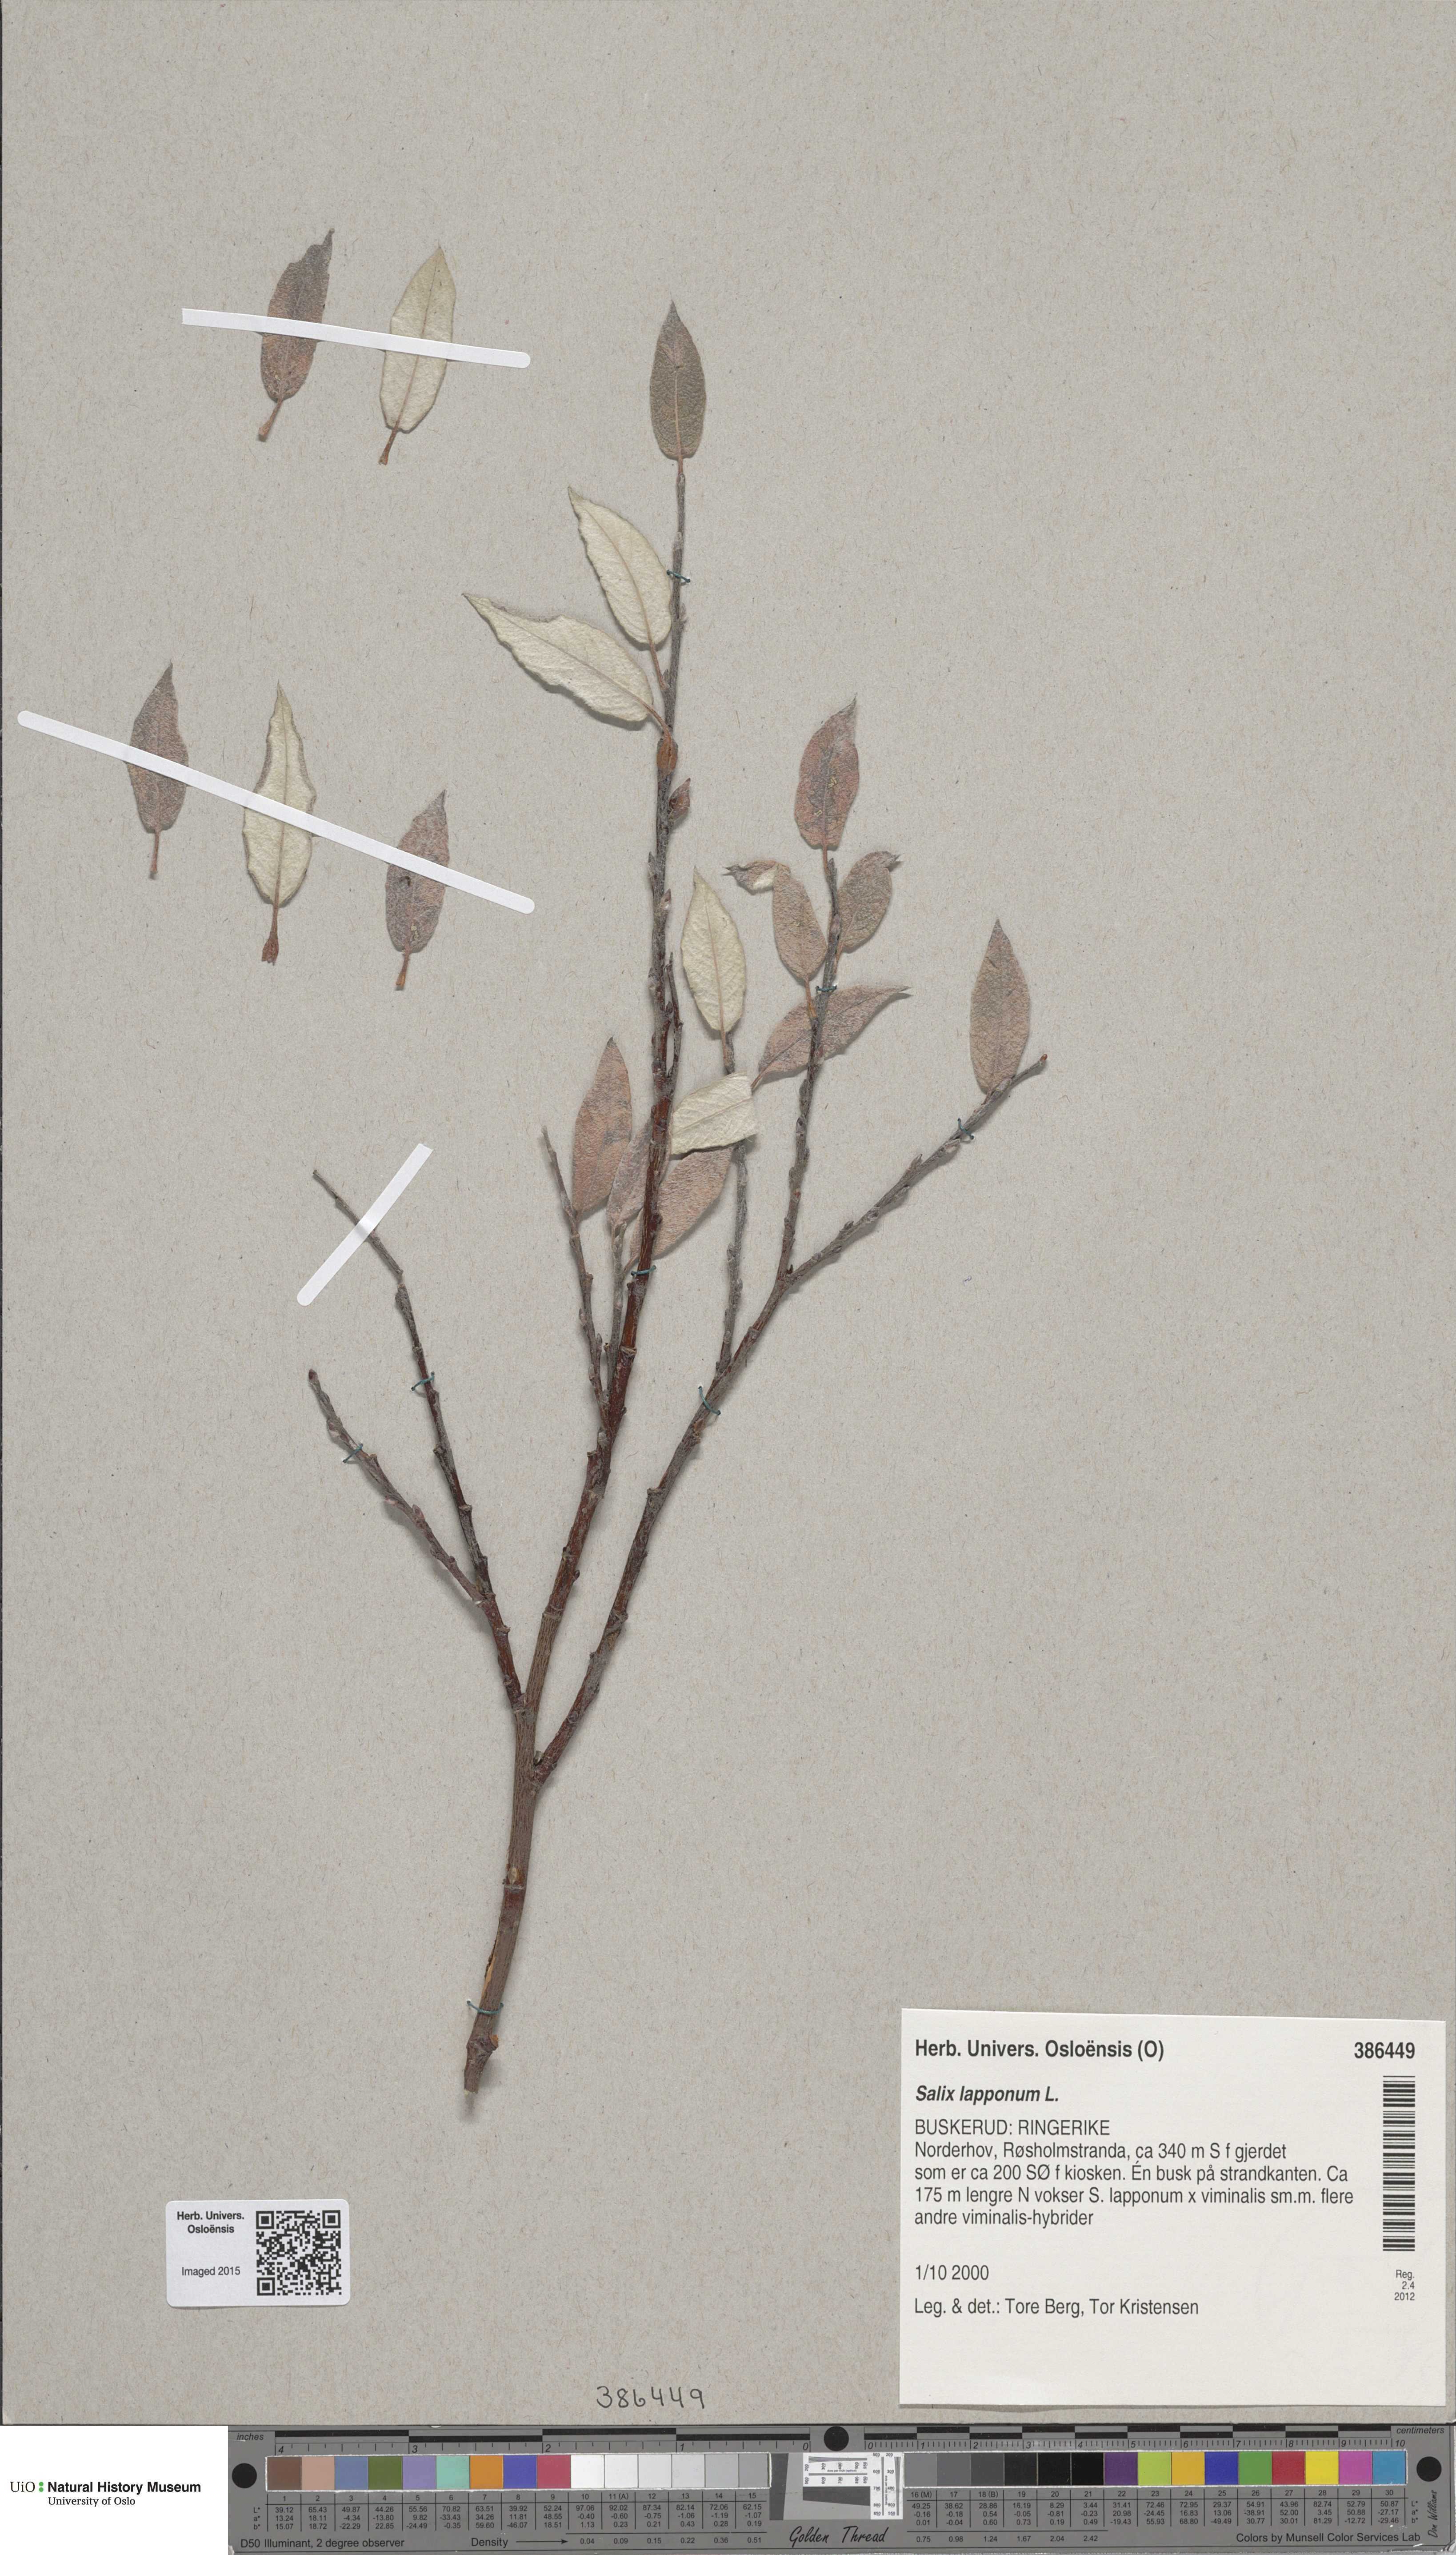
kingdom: Plantae
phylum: Tracheophyta
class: Magnoliopsida
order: Malpighiales
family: Salicaceae
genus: Salix
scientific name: Salix lapponum
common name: Downy willow
